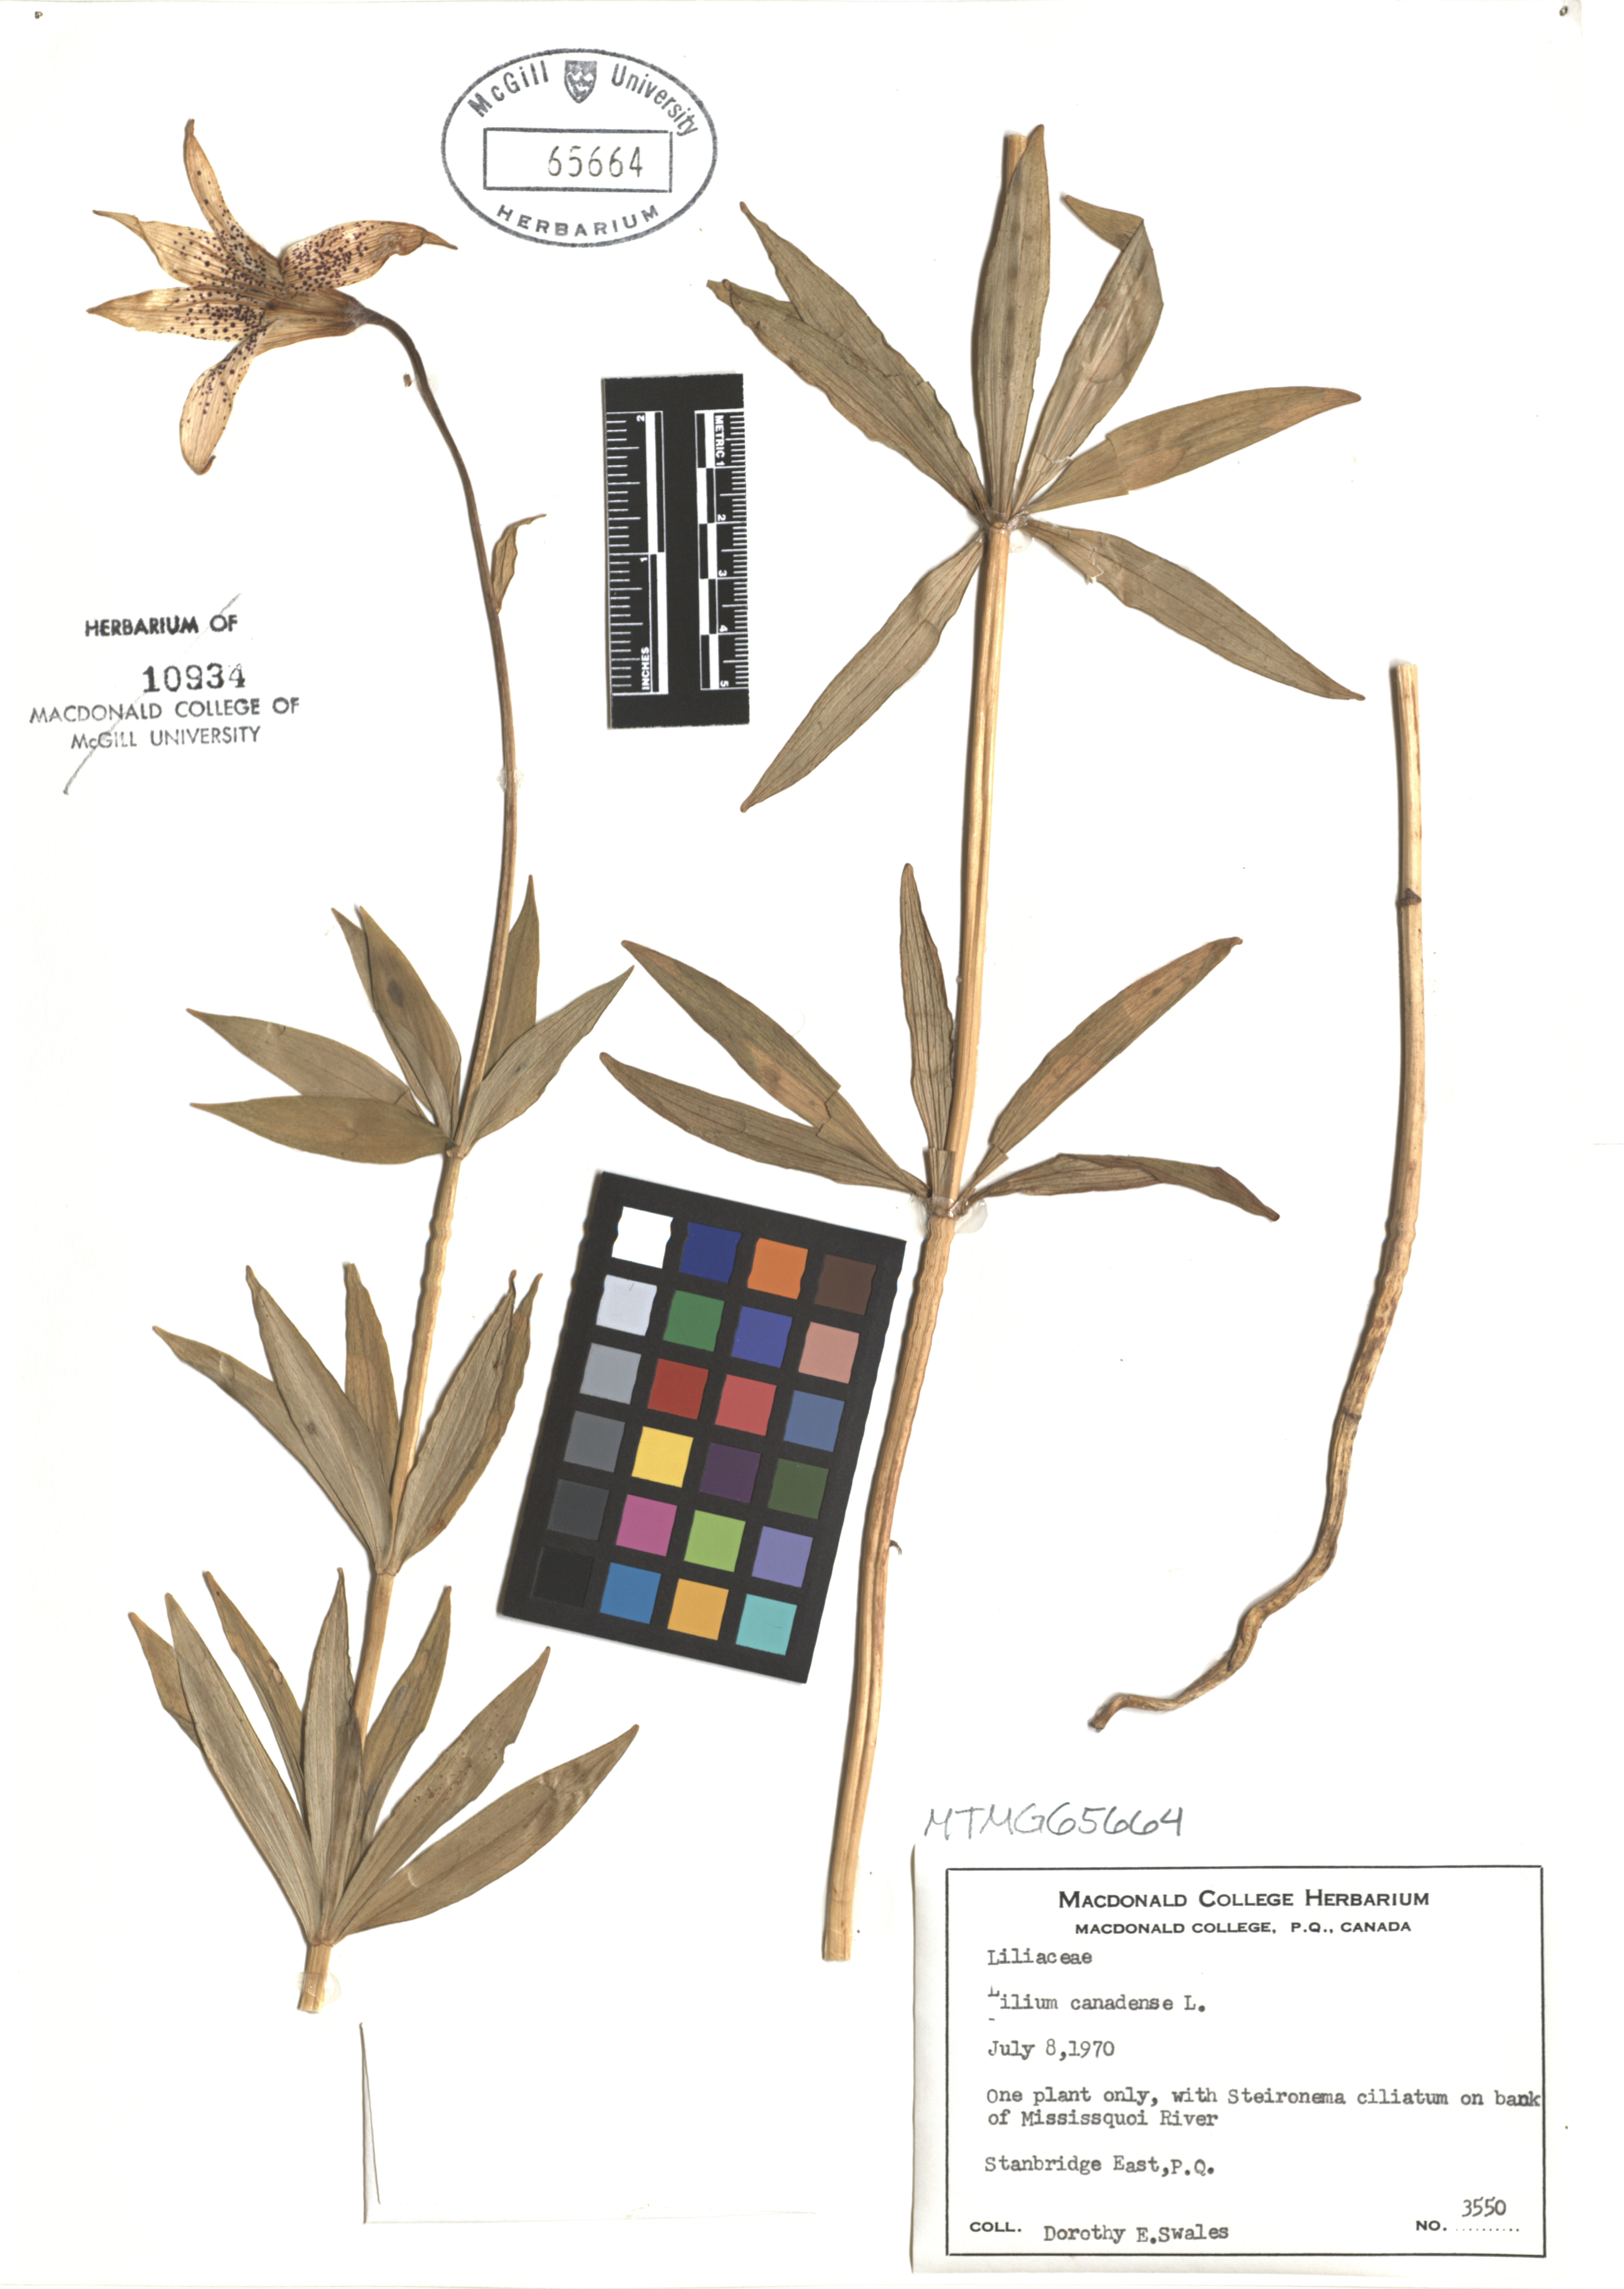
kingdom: Plantae
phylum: Tracheophyta
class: Liliopsida
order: Liliales
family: Liliaceae
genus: Lilium
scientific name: Lilium canadense
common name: Canada lily
